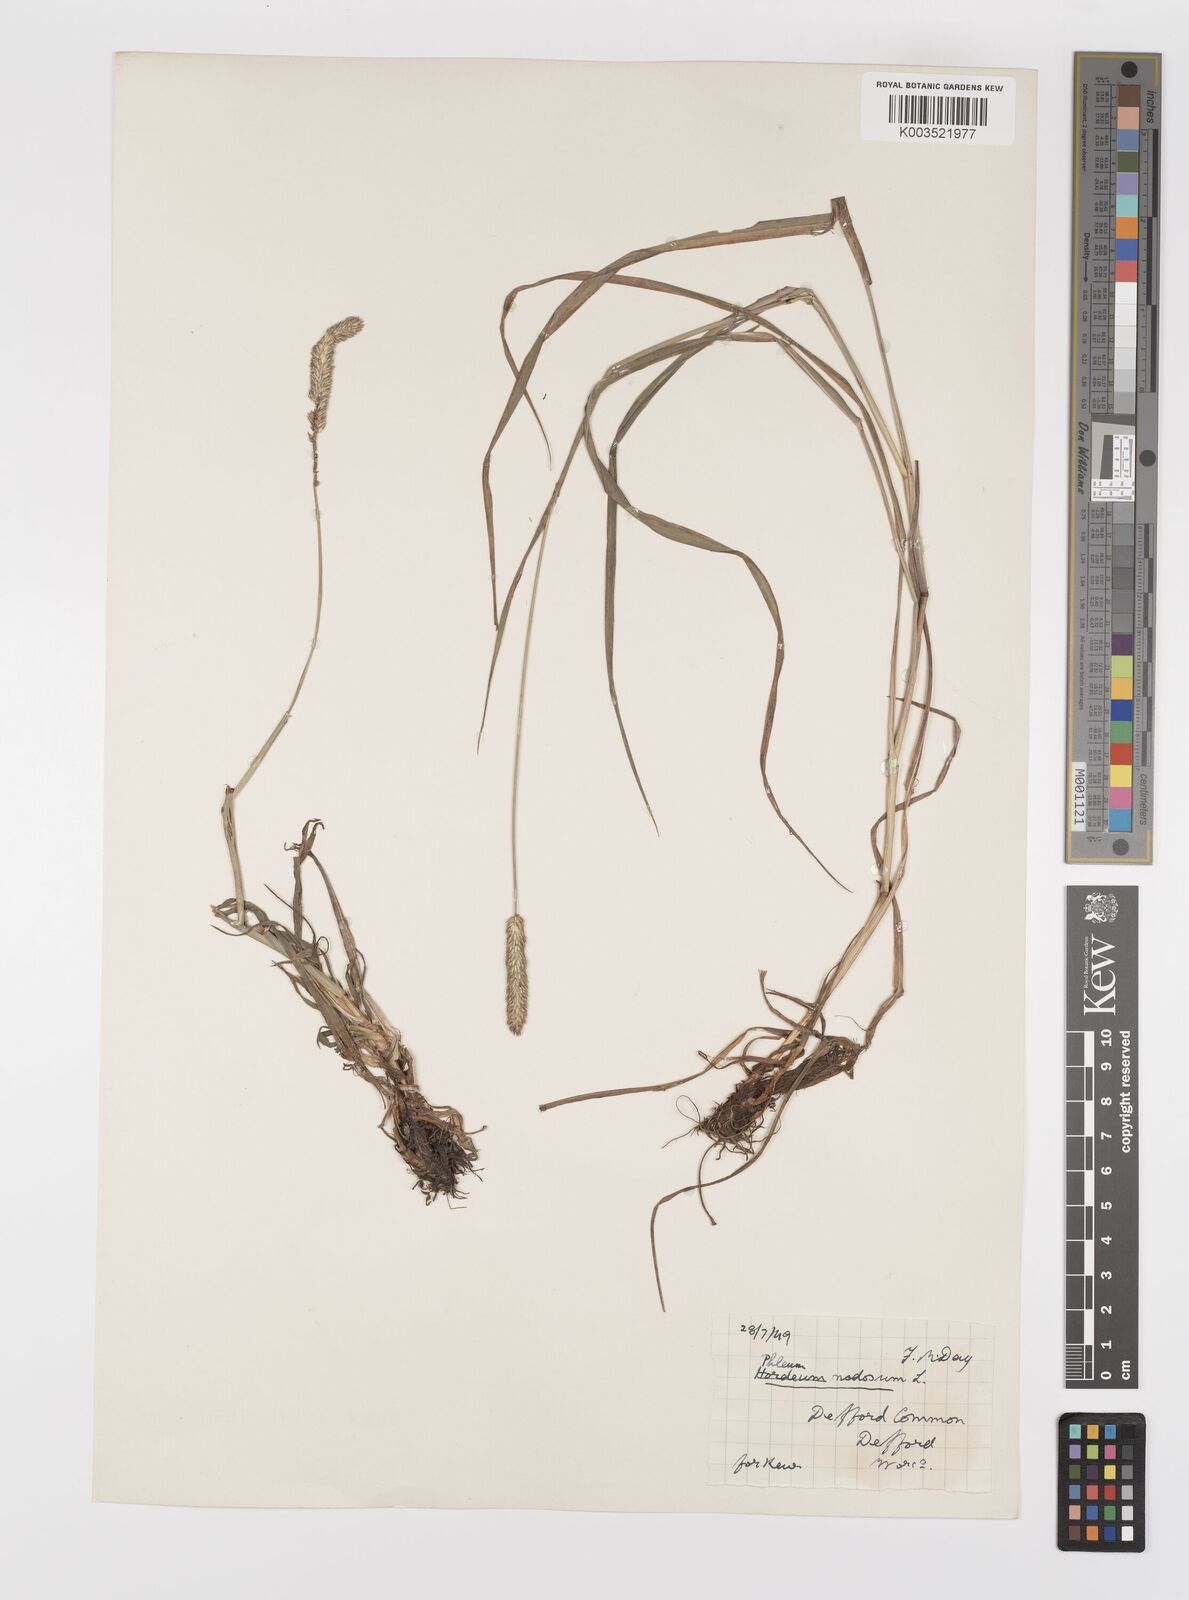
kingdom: Plantae
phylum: Tracheophyta
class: Liliopsida
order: Poales
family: Poaceae
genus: Phleum
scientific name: Phleum bertolonii
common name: Smaller cat's-tail
